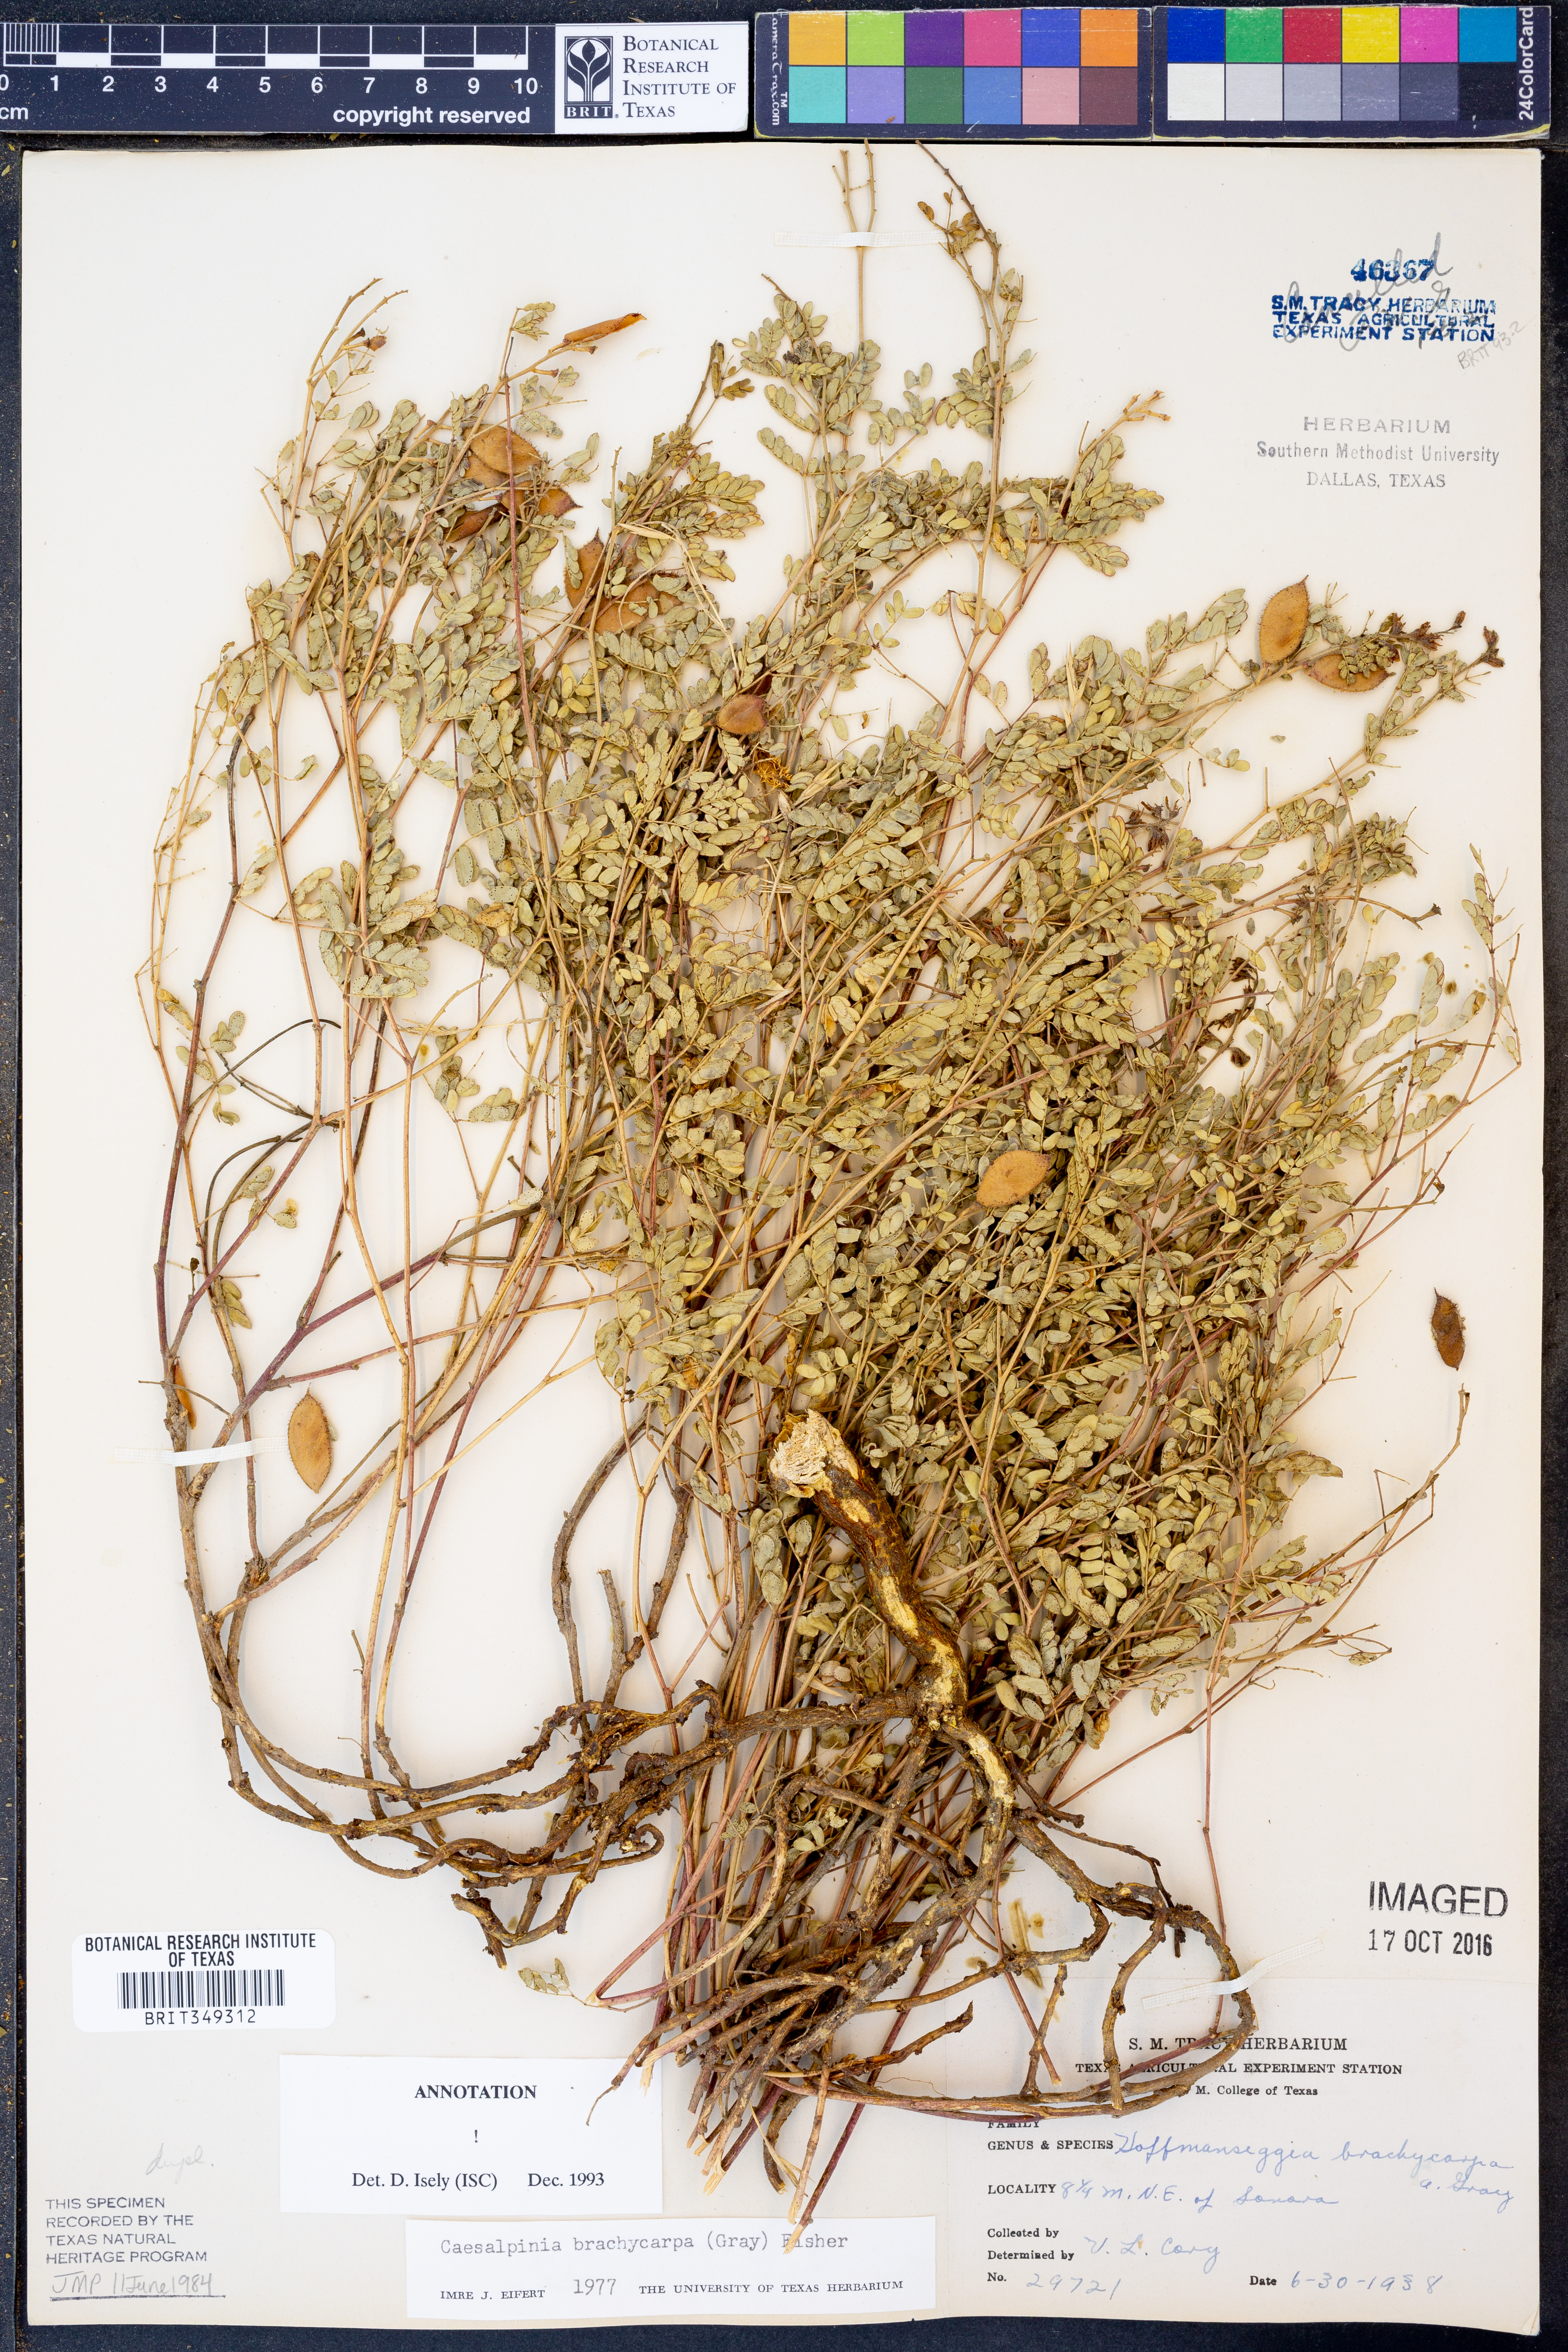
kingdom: Plantae
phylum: Tracheophyta
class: Magnoliopsida
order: Fabales
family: Fabaceae
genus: Pomaria
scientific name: Pomaria brachycarpa
